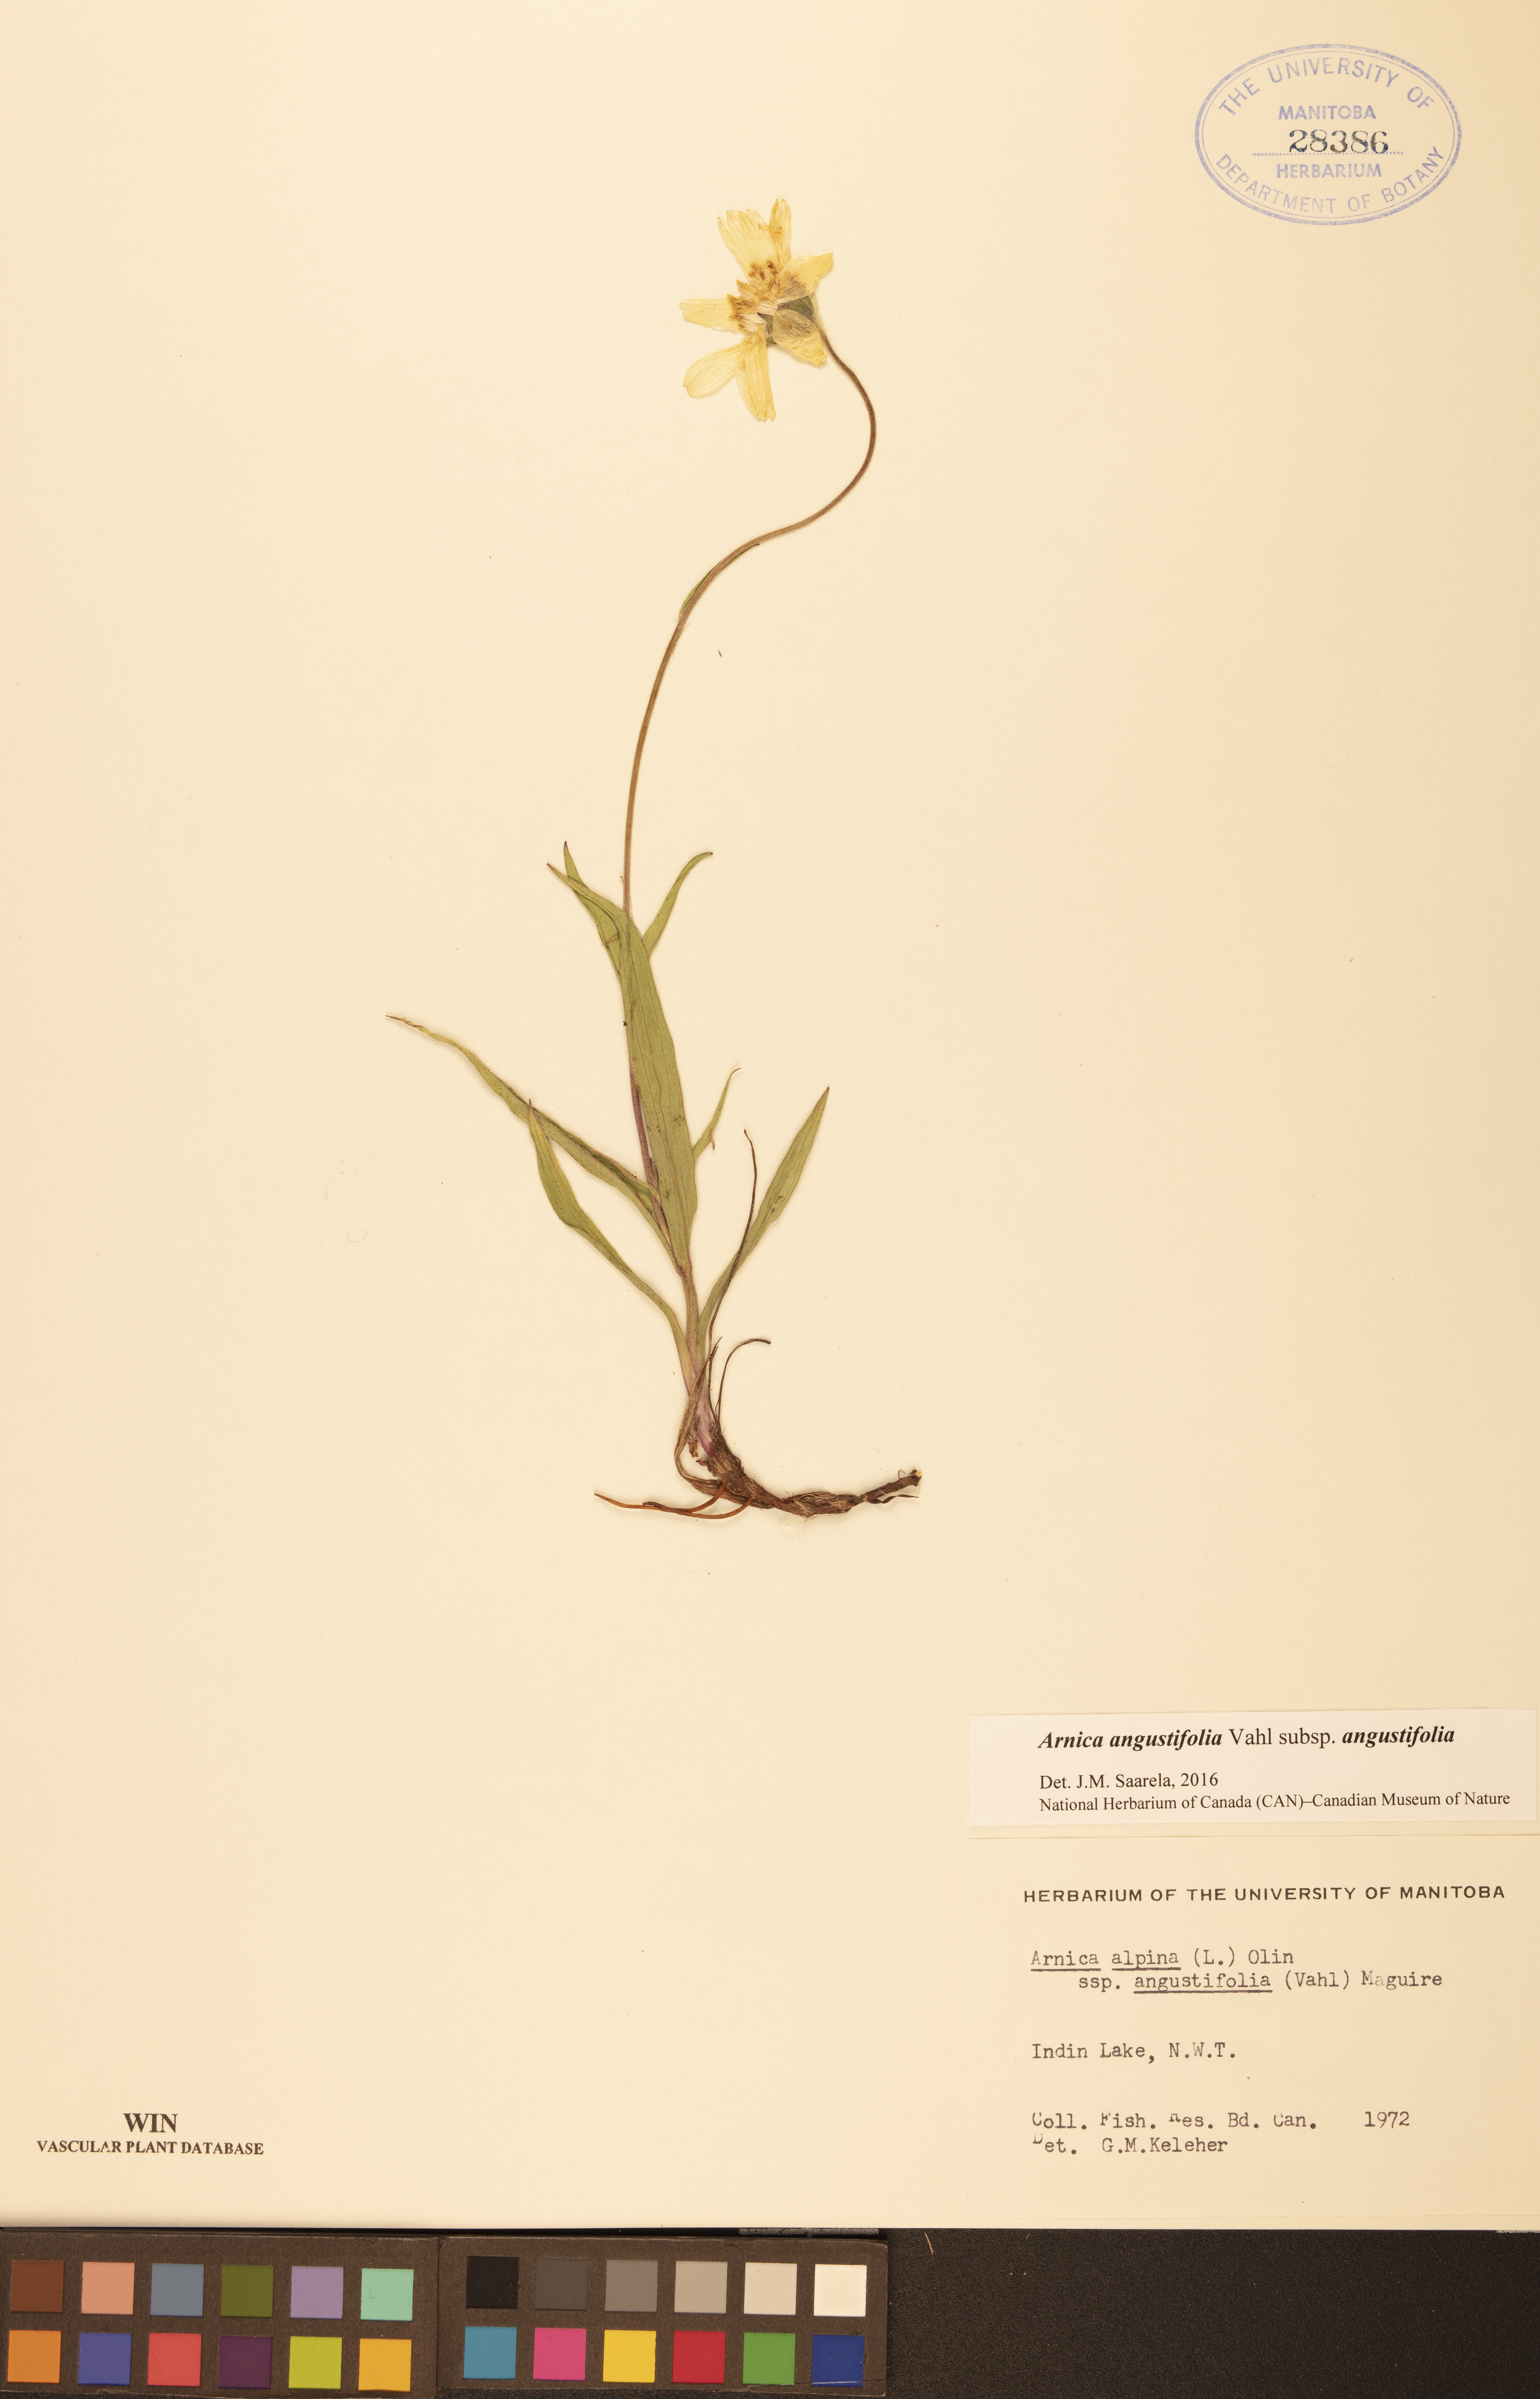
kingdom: Plantae
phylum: Tracheophyta
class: Magnoliopsida
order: Asterales
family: Asteraceae
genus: Arnica
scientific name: Arnica angustifolia
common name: Arctic arnica
